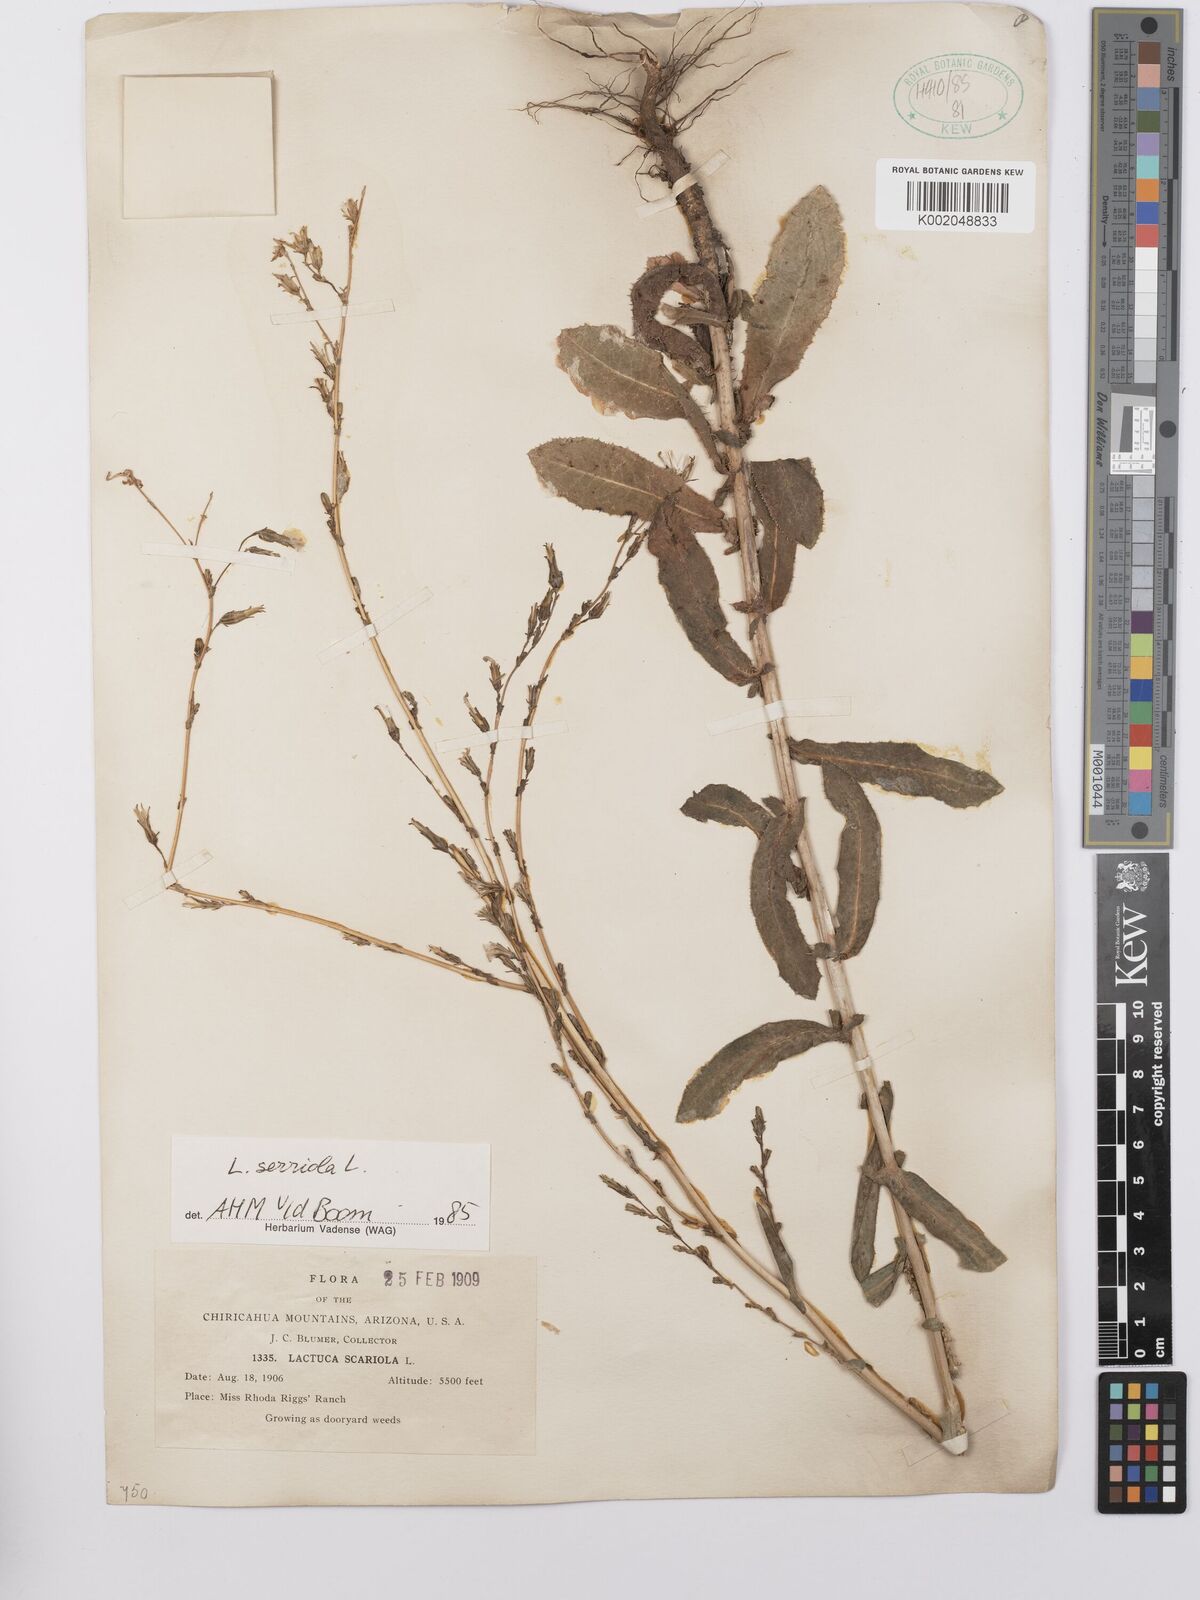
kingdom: Plantae
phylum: Tracheophyta
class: Magnoliopsida
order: Asterales
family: Asteraceae
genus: Lactuca
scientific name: Lactuca serriola
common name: Prickly lettuce
